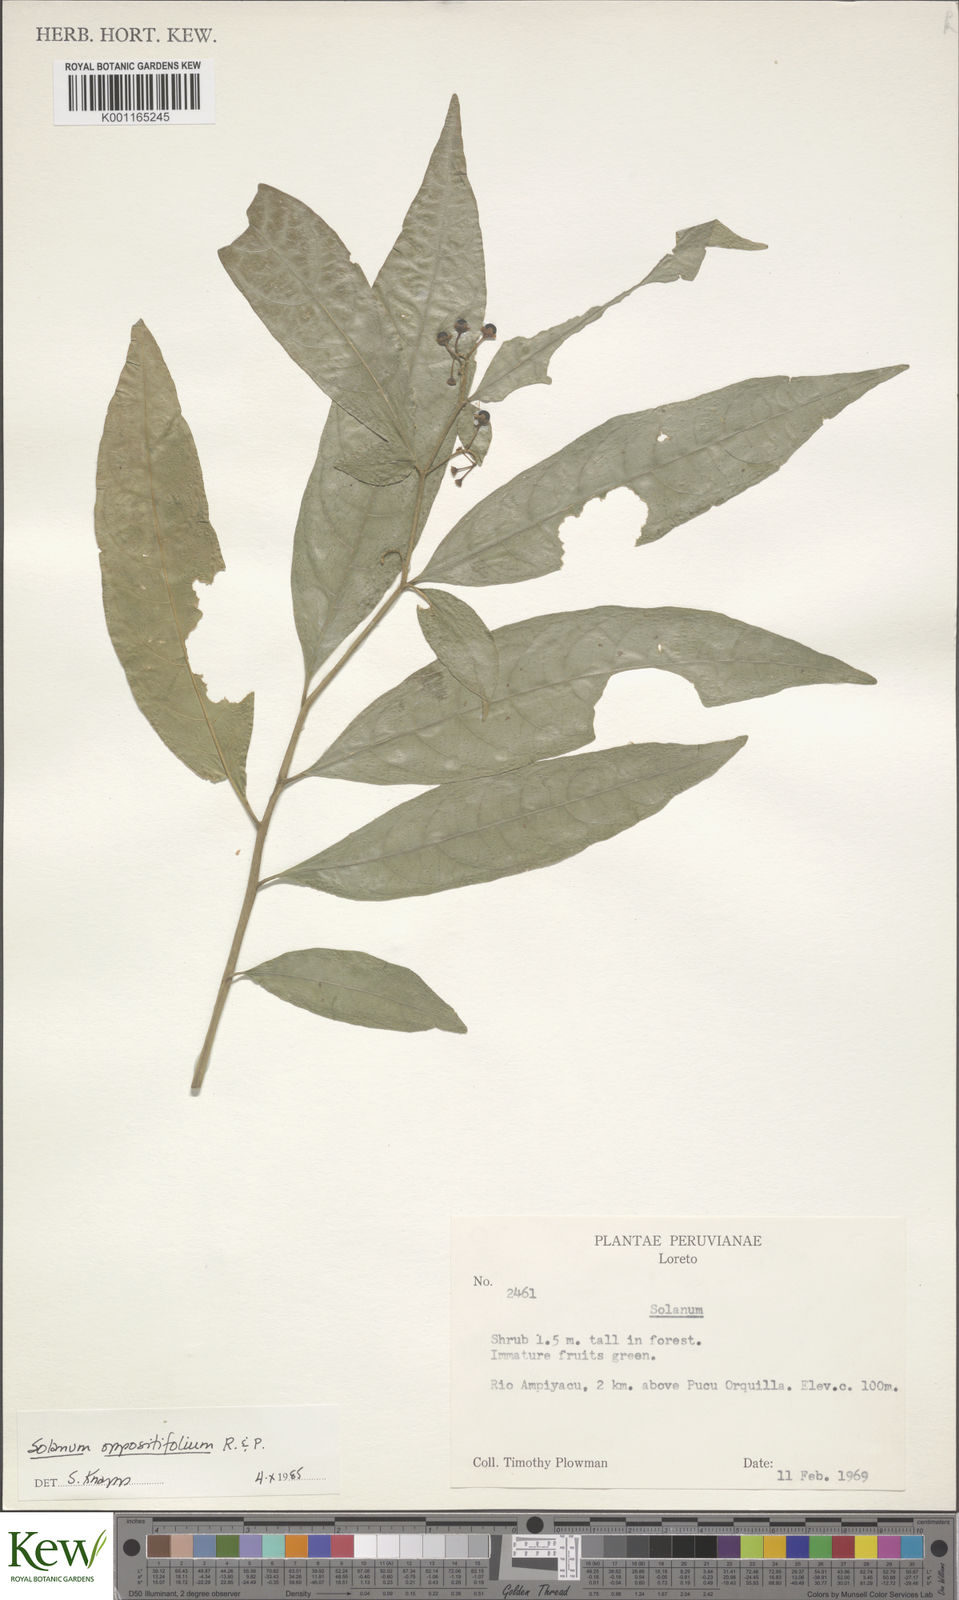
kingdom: Plantae
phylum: Tracheophyta
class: Magnoliopsida
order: Solanales
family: Solanaceae
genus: Solanum
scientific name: Solanum oppositifolium
